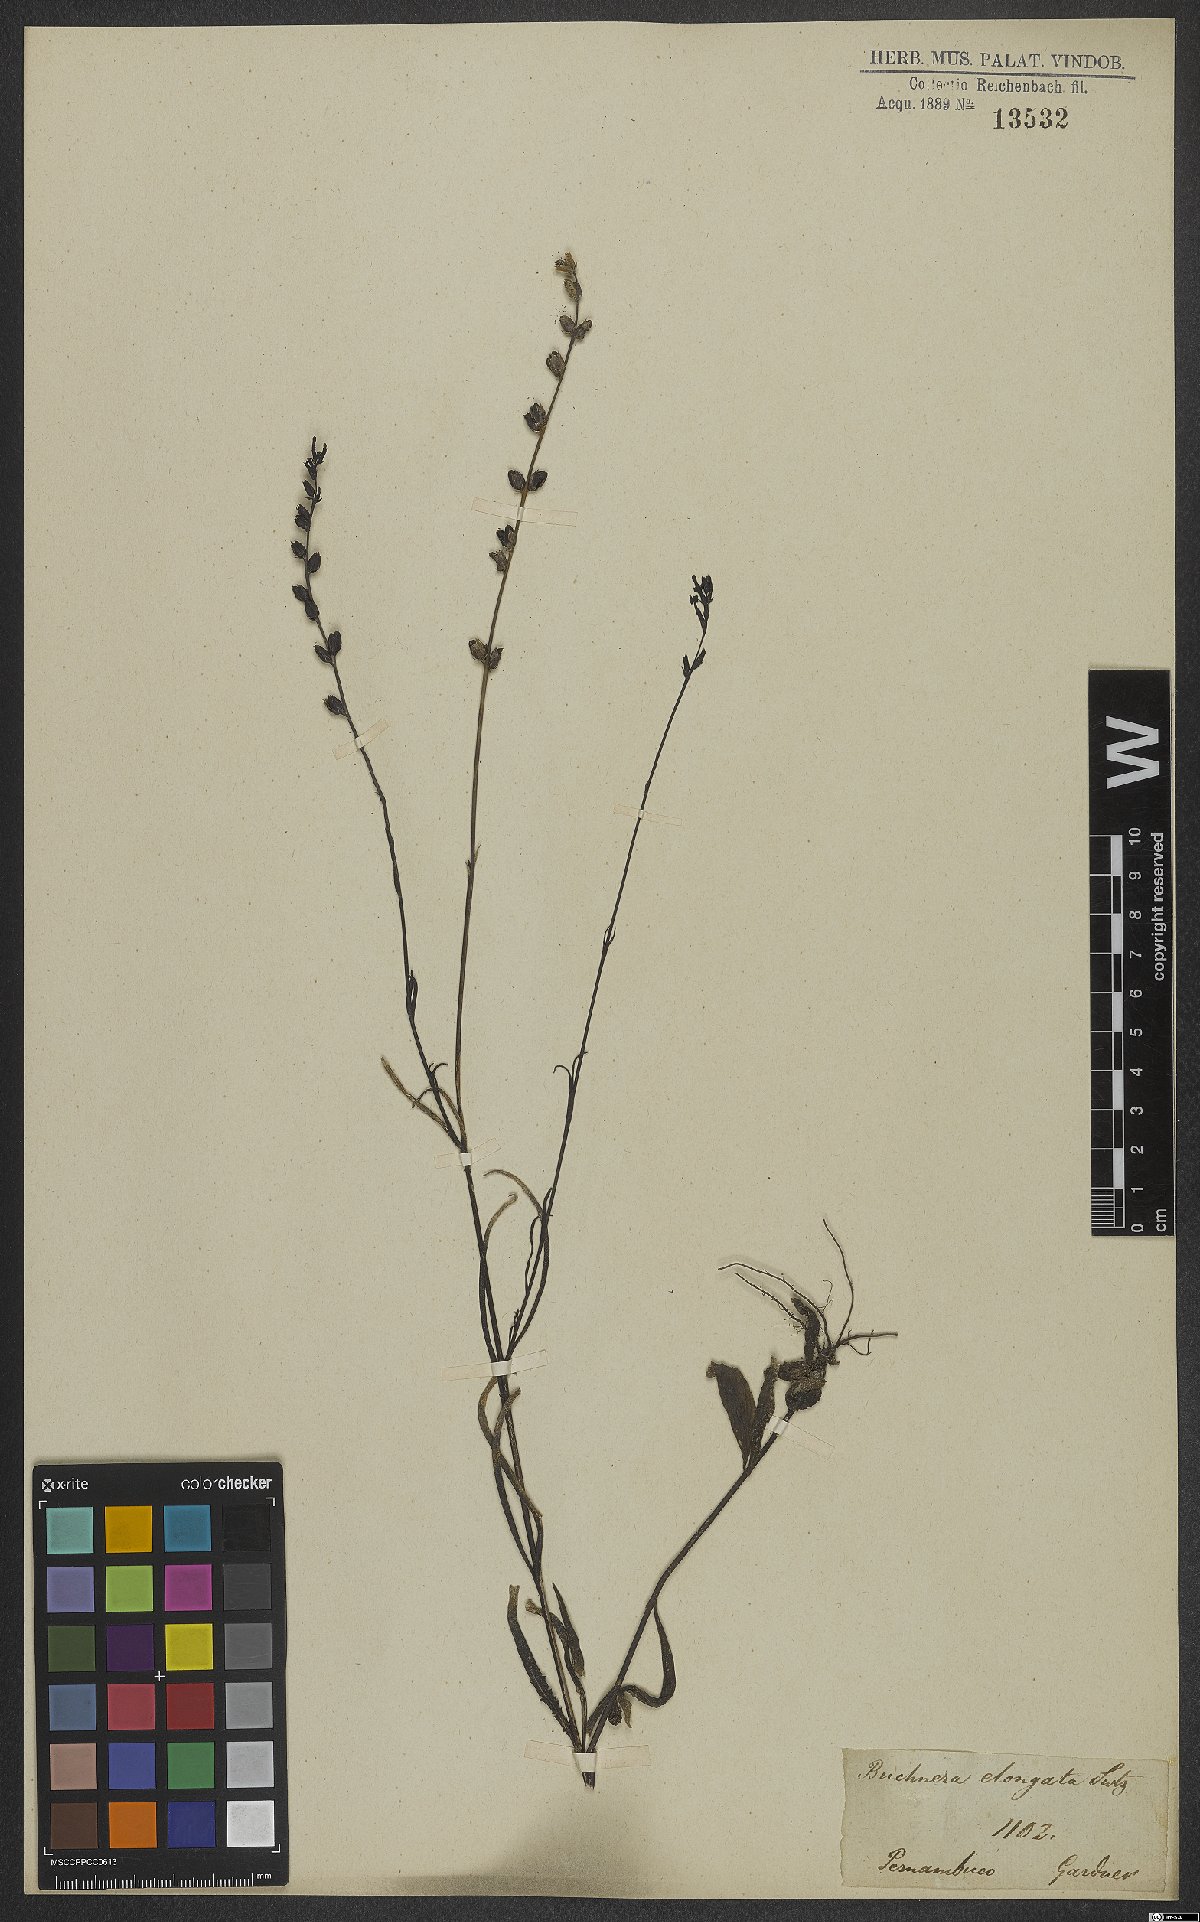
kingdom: Plantae
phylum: Tracheophyta
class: Magnoliopsida
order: Lamiales
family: Orobanchaceae
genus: Buchnera
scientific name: Buchnera
